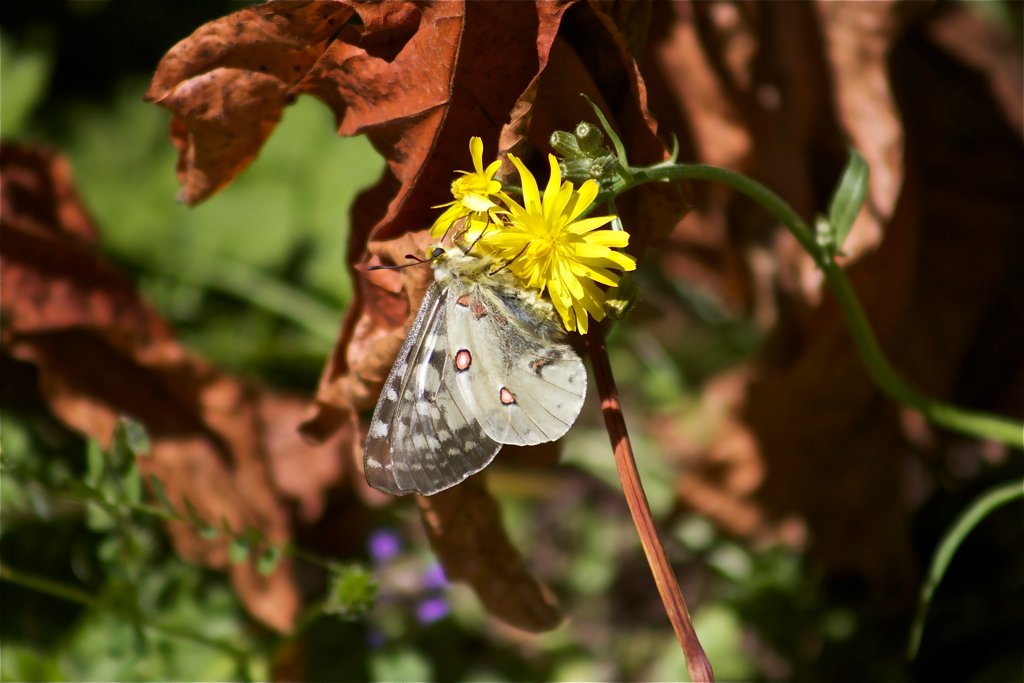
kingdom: Animalia
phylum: Arthropoda
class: Insecta
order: Lepidoptera
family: Papilionidae
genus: Parnassius
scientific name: Parnassius clodius
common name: Clodius Parnassian
